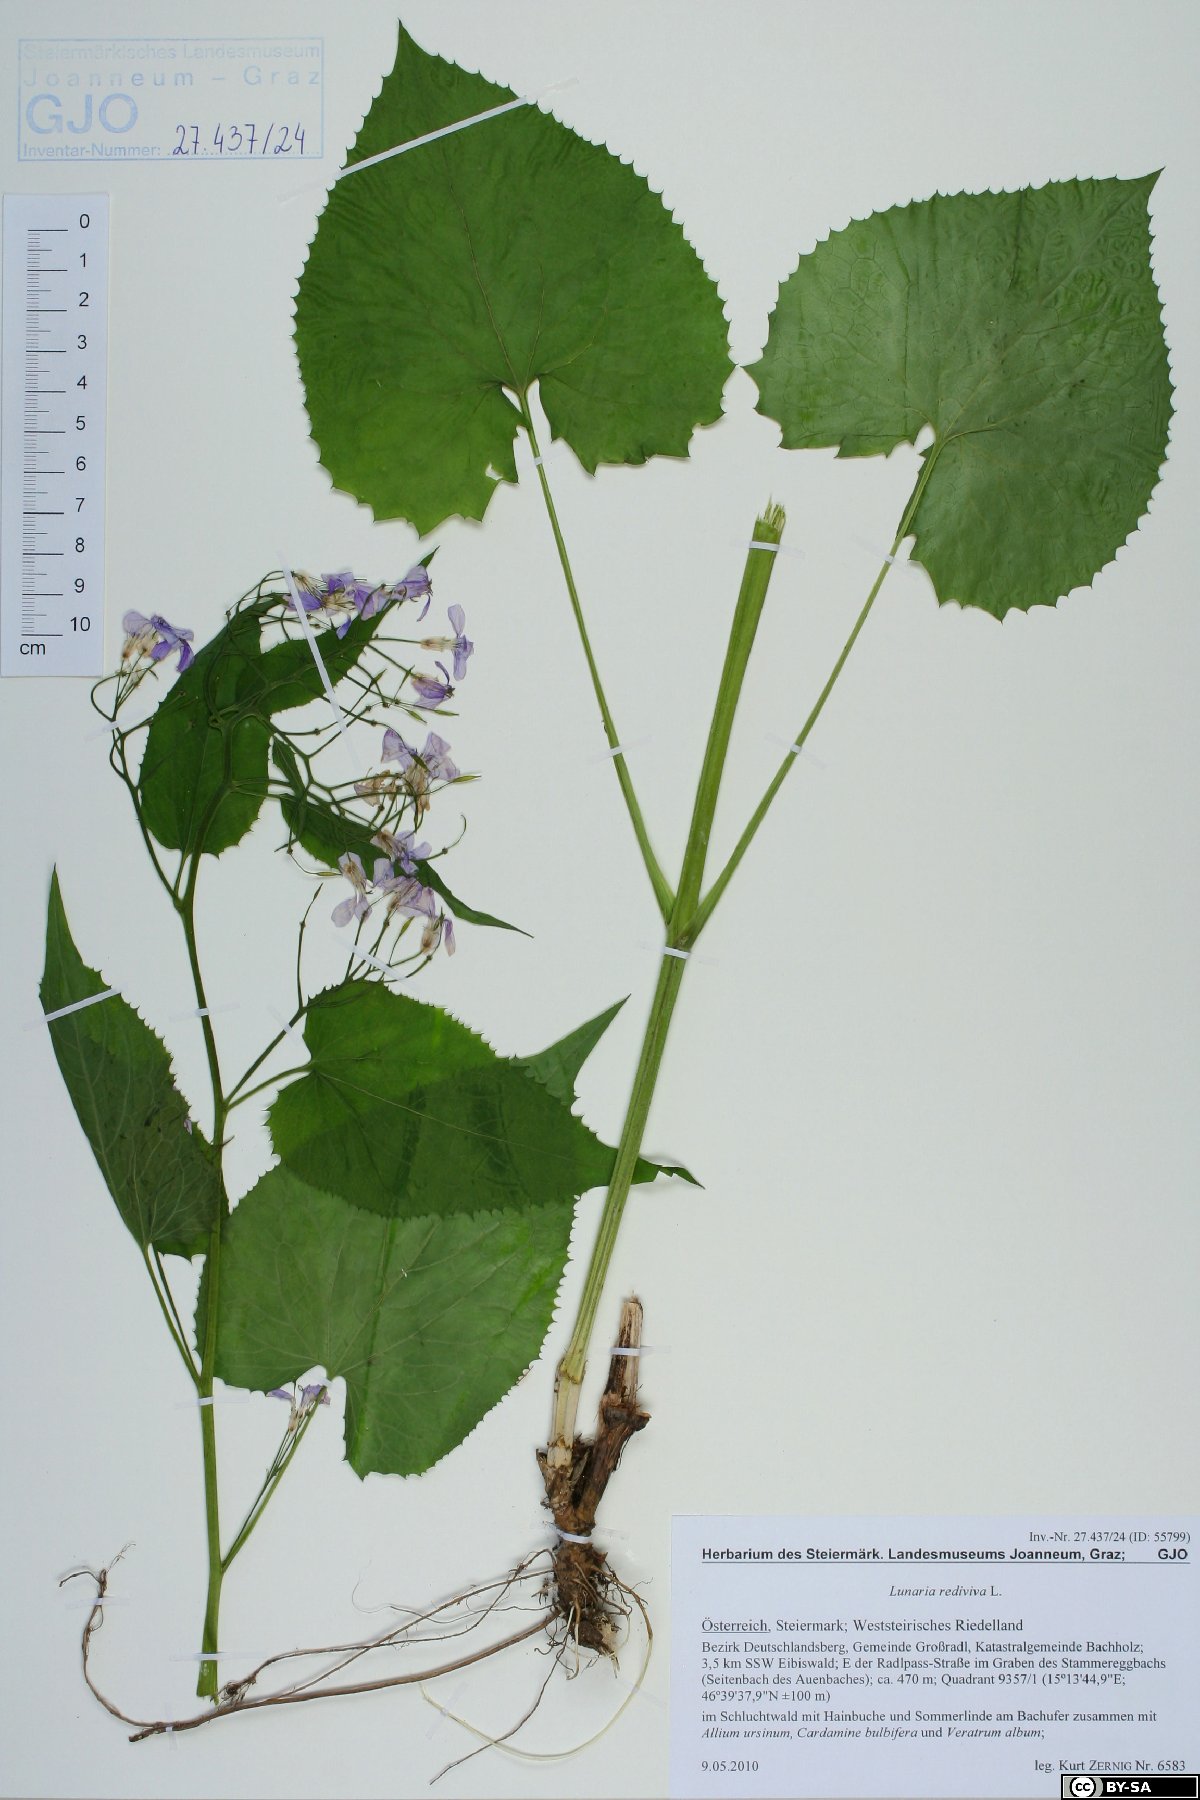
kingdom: Plantae
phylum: Tracheophyta
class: Magnoliopsida
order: Brassicales
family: Brassicaceae
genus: Lunaria
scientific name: Lunaria rediviva
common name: Perennial honesty
